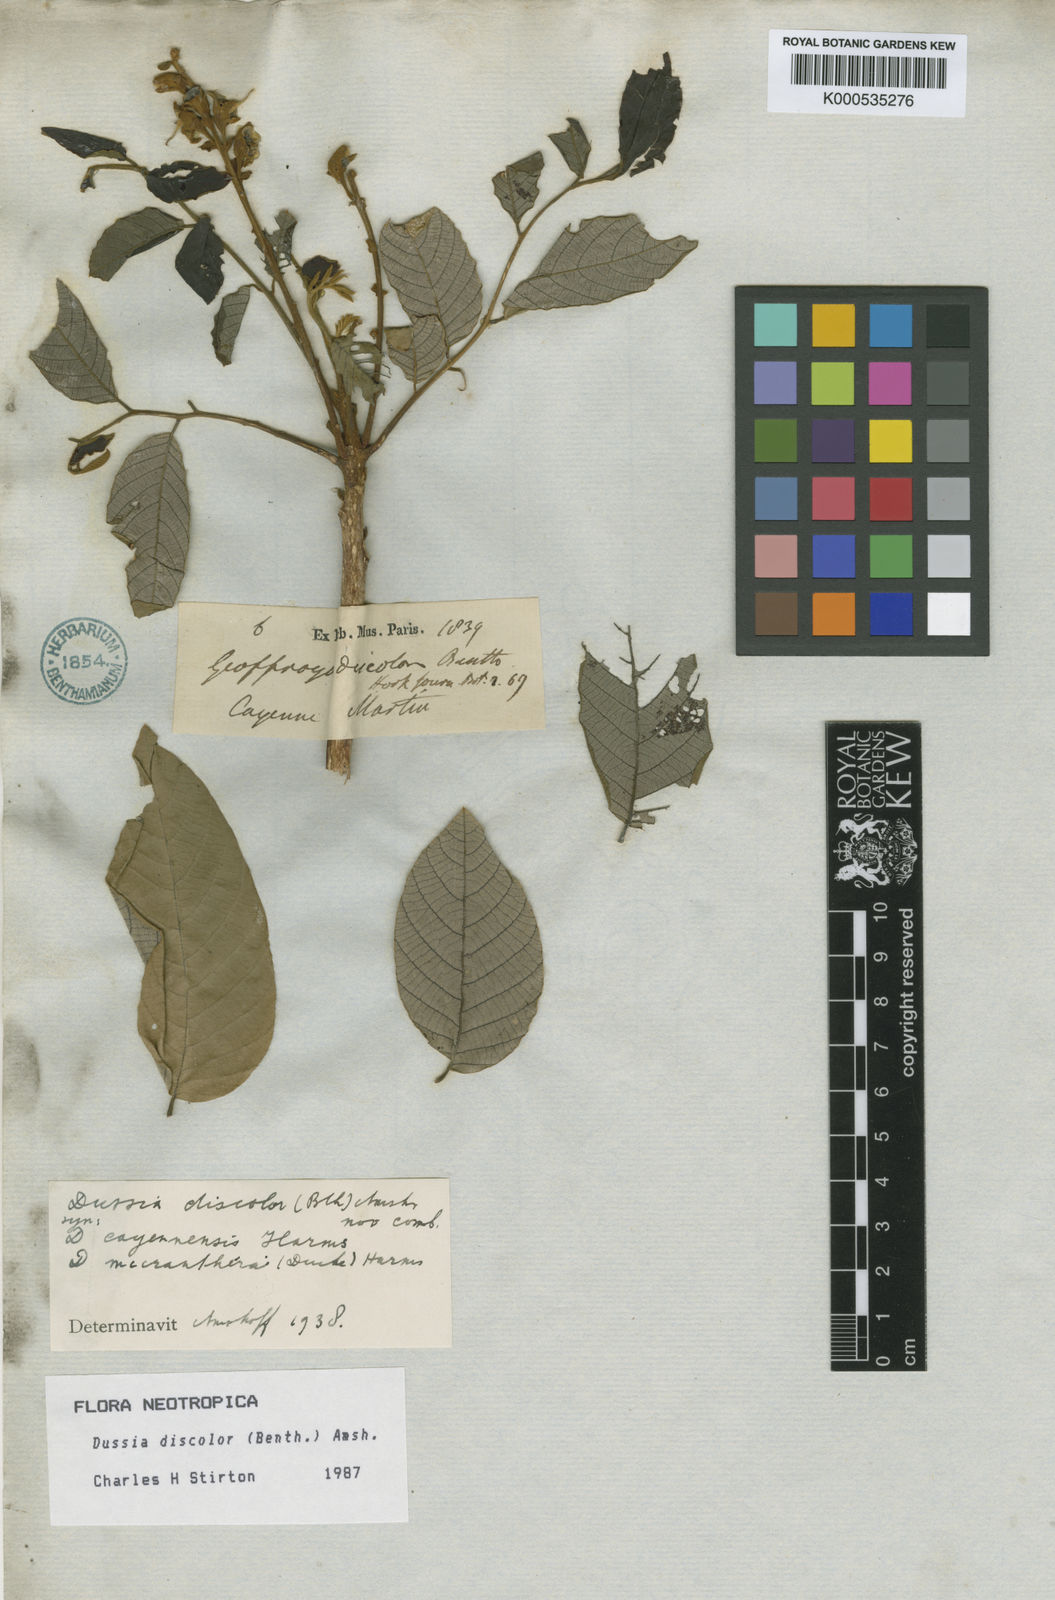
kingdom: Plantae
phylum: Tracheophyta
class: Magnoliopsida
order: Fabales
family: Fabaceae
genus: Dussia
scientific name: Dussia discolor
